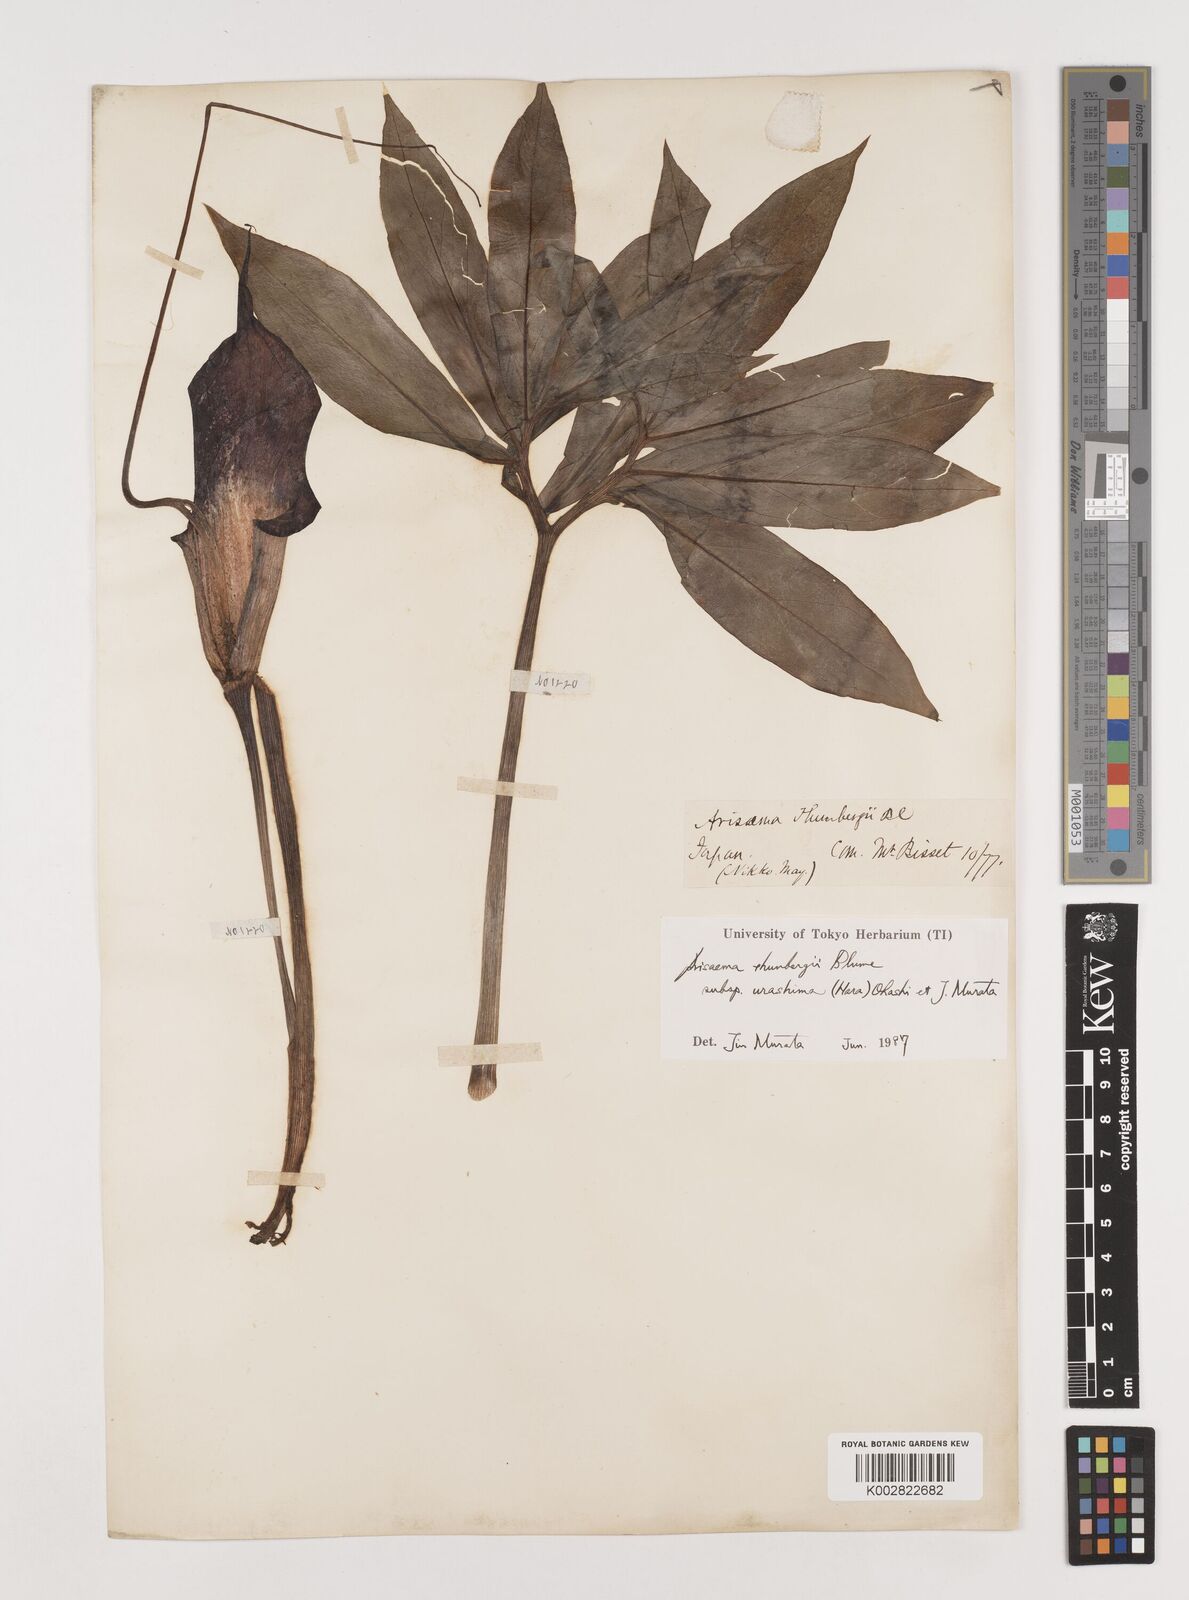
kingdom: Plantae
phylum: Tracheophyta
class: Liliopsida
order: Alismatales
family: Araceae
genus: Arisaema
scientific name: Arisaema thunbergii
